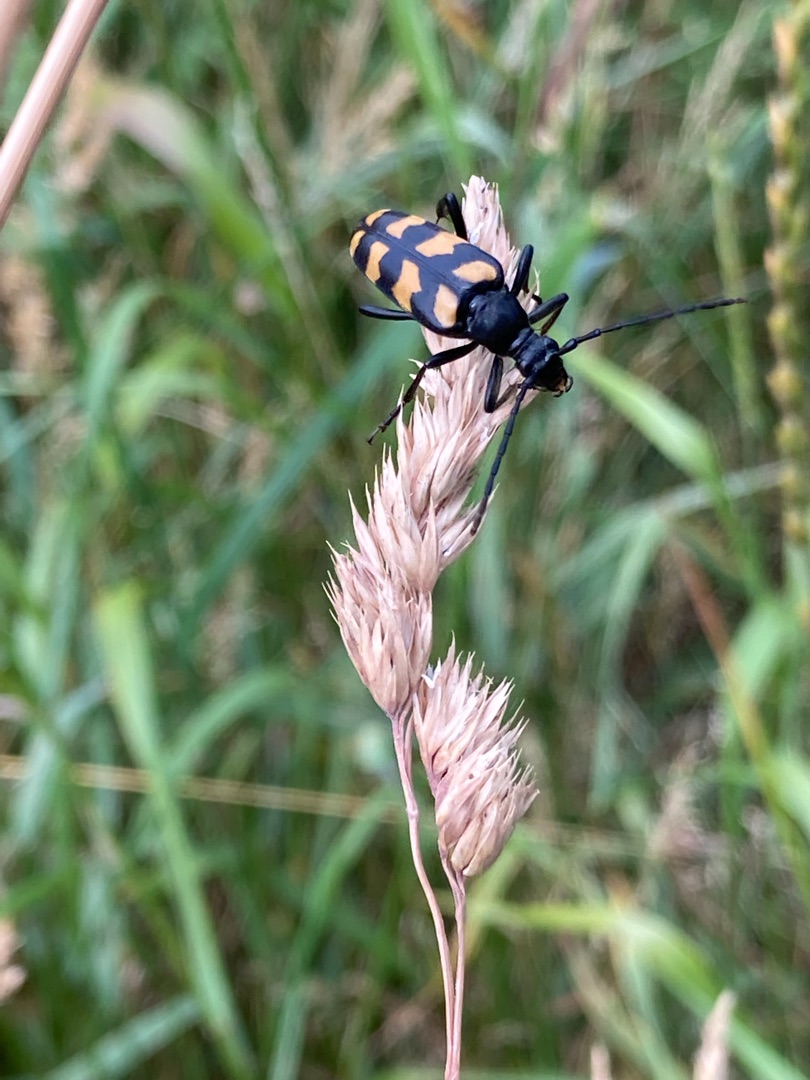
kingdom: Animalia
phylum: Arthropoda
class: Insecta
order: Coleoptera
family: Cerambycidae
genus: Leptura
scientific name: Leptura quadrifasciata
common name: Firebåndet blomsterbuk
